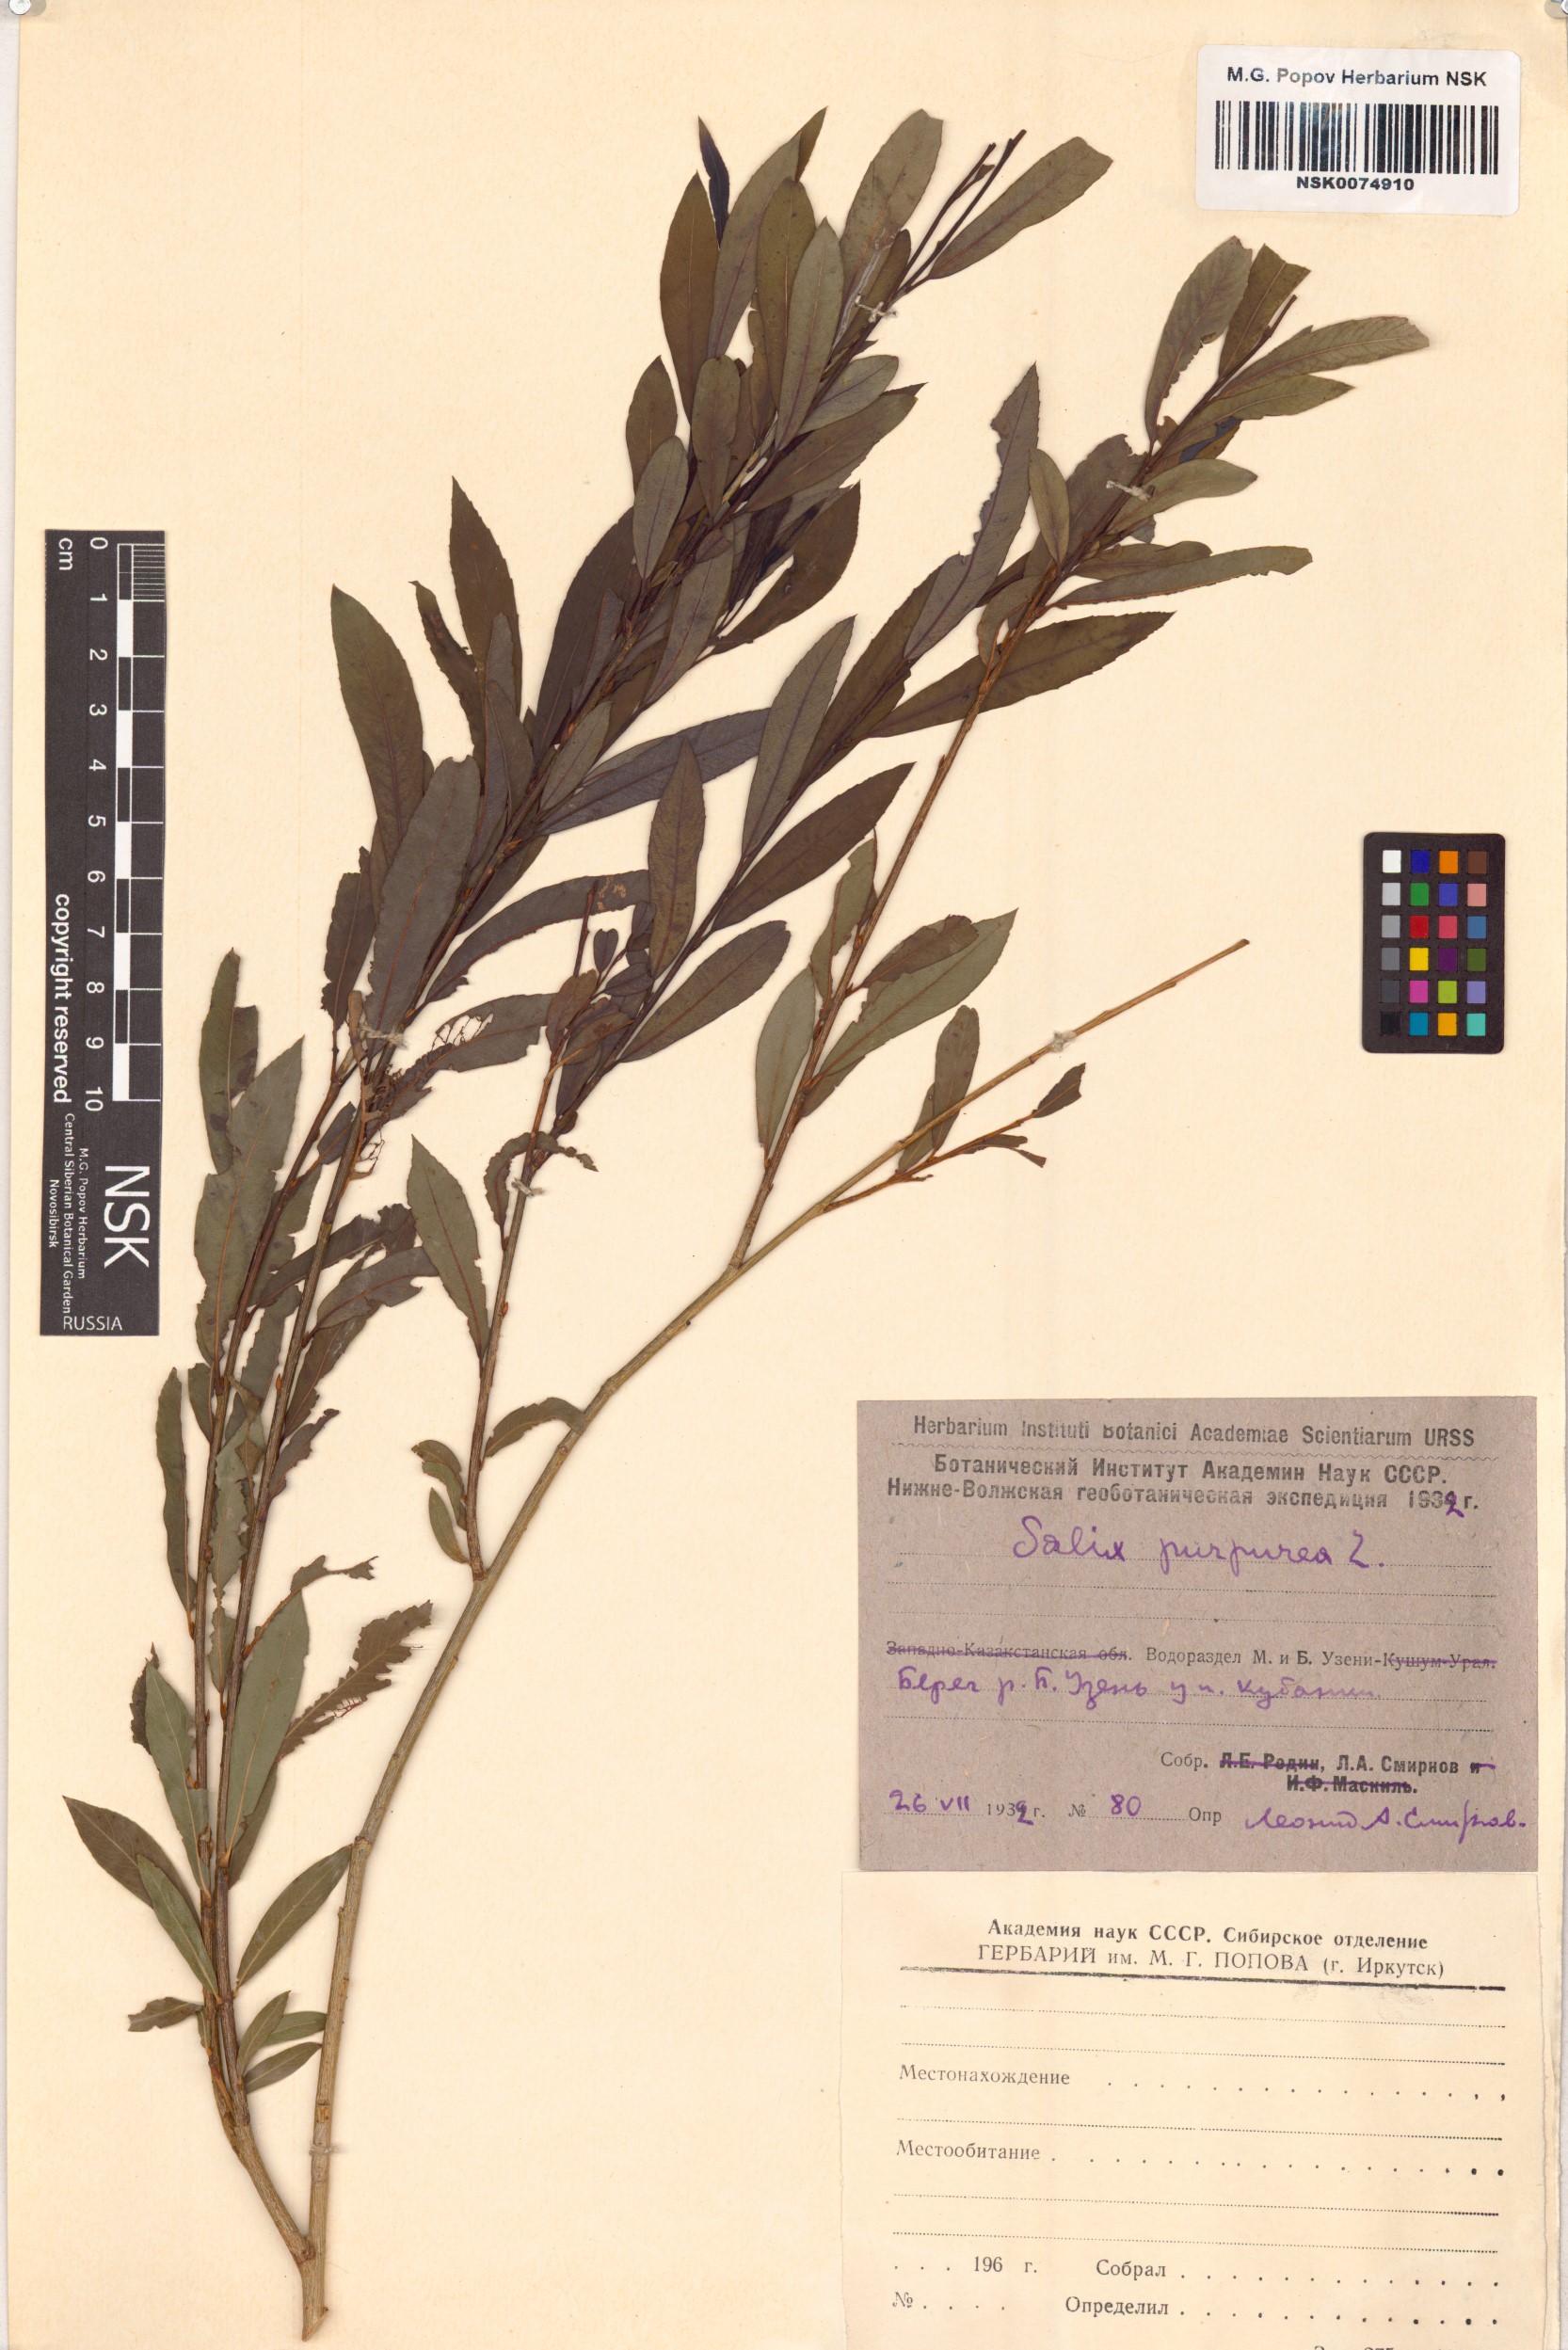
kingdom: Plantae
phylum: Tracheophyta
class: Magnoliopsida
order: Malpighiales
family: Salicaceae
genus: Salix
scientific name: Salix purpurea
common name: Purple willow
